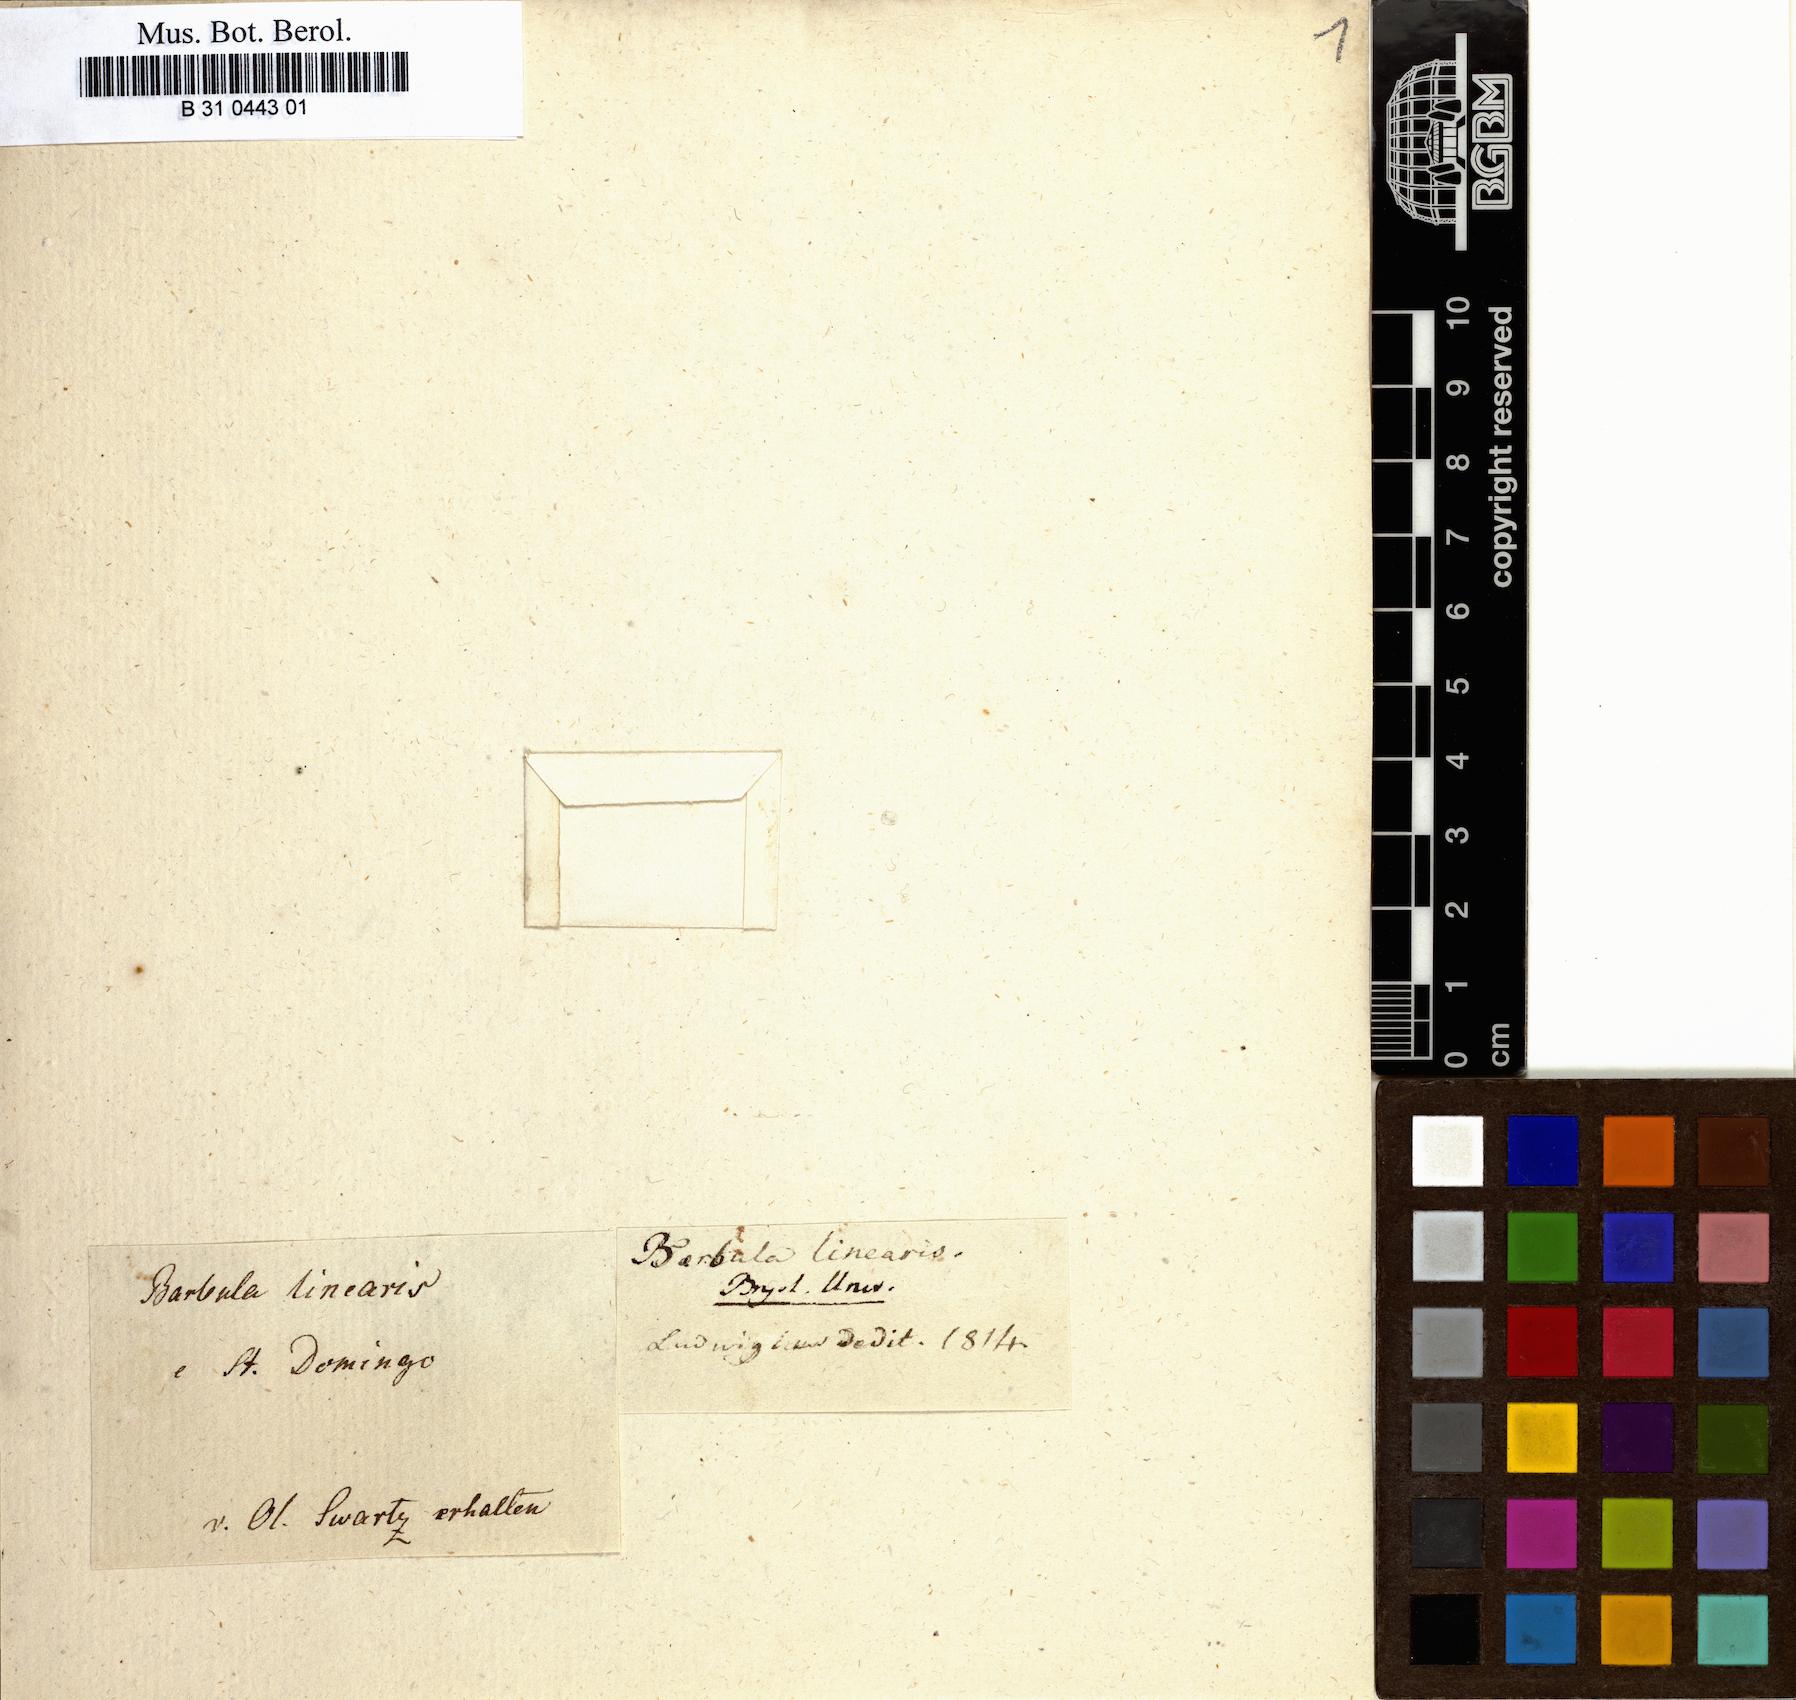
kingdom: Plantae
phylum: Bryophyta
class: Bryopsida
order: Pottiales
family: Pottiaceae
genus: Tortella
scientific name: Tortella linearis
